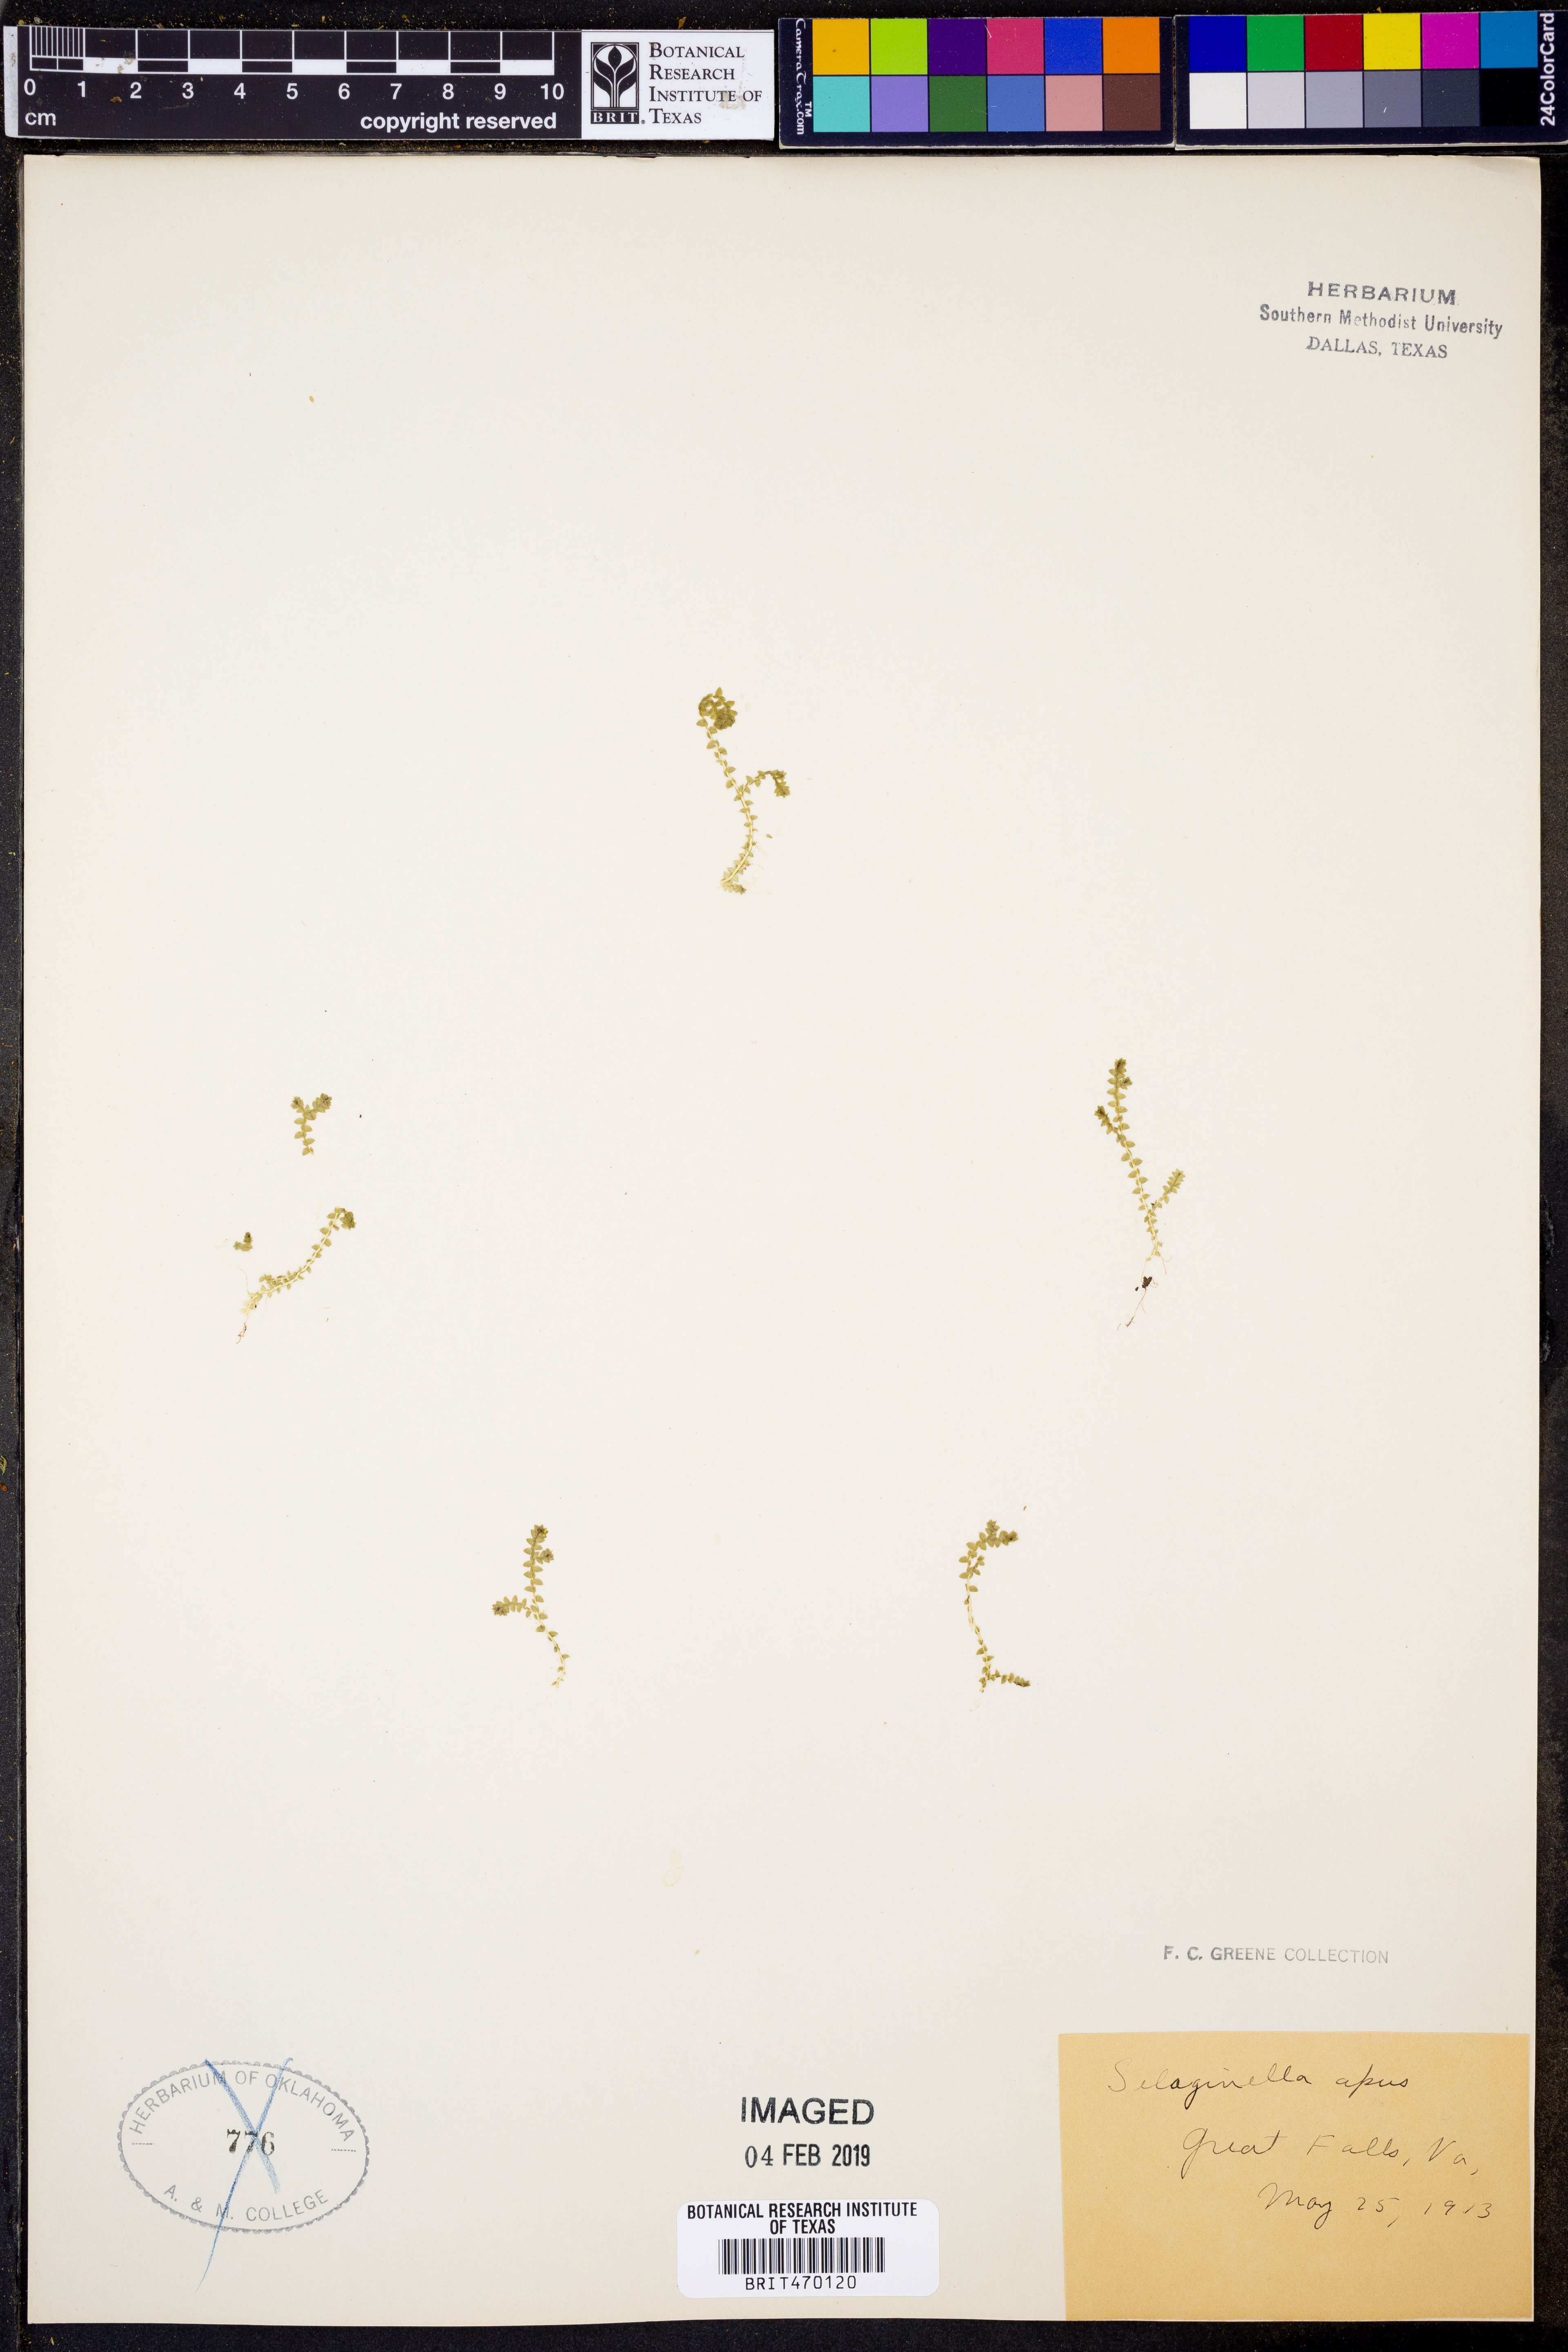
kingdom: Plantae
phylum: Tracheophyta
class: Lycopodiopsida
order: Selaginellales
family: Selaginellaceae
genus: Selaginella
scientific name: Selaginella apoda
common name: Creeping spikemoss
